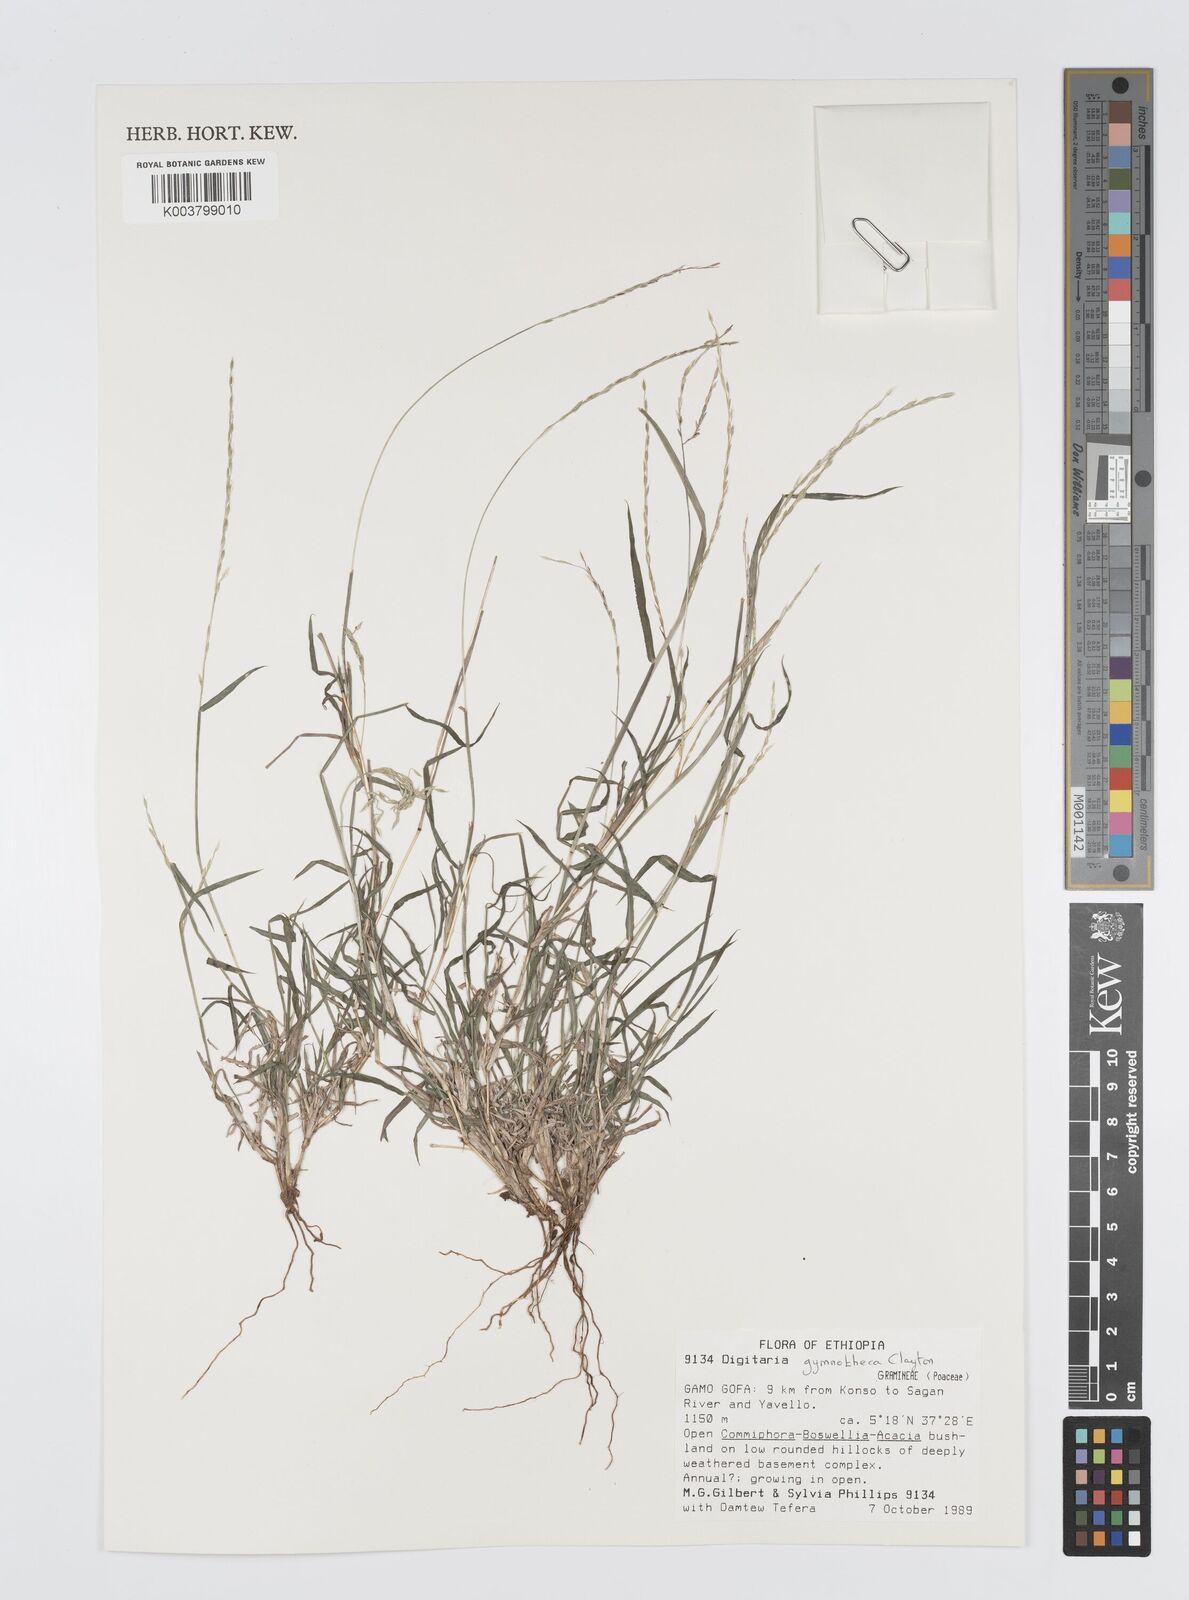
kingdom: Plantae
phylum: Tracheophyta
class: Liliopsida
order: Poales
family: Poaceae
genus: Digitaria
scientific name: Digitaria gymnotheca
